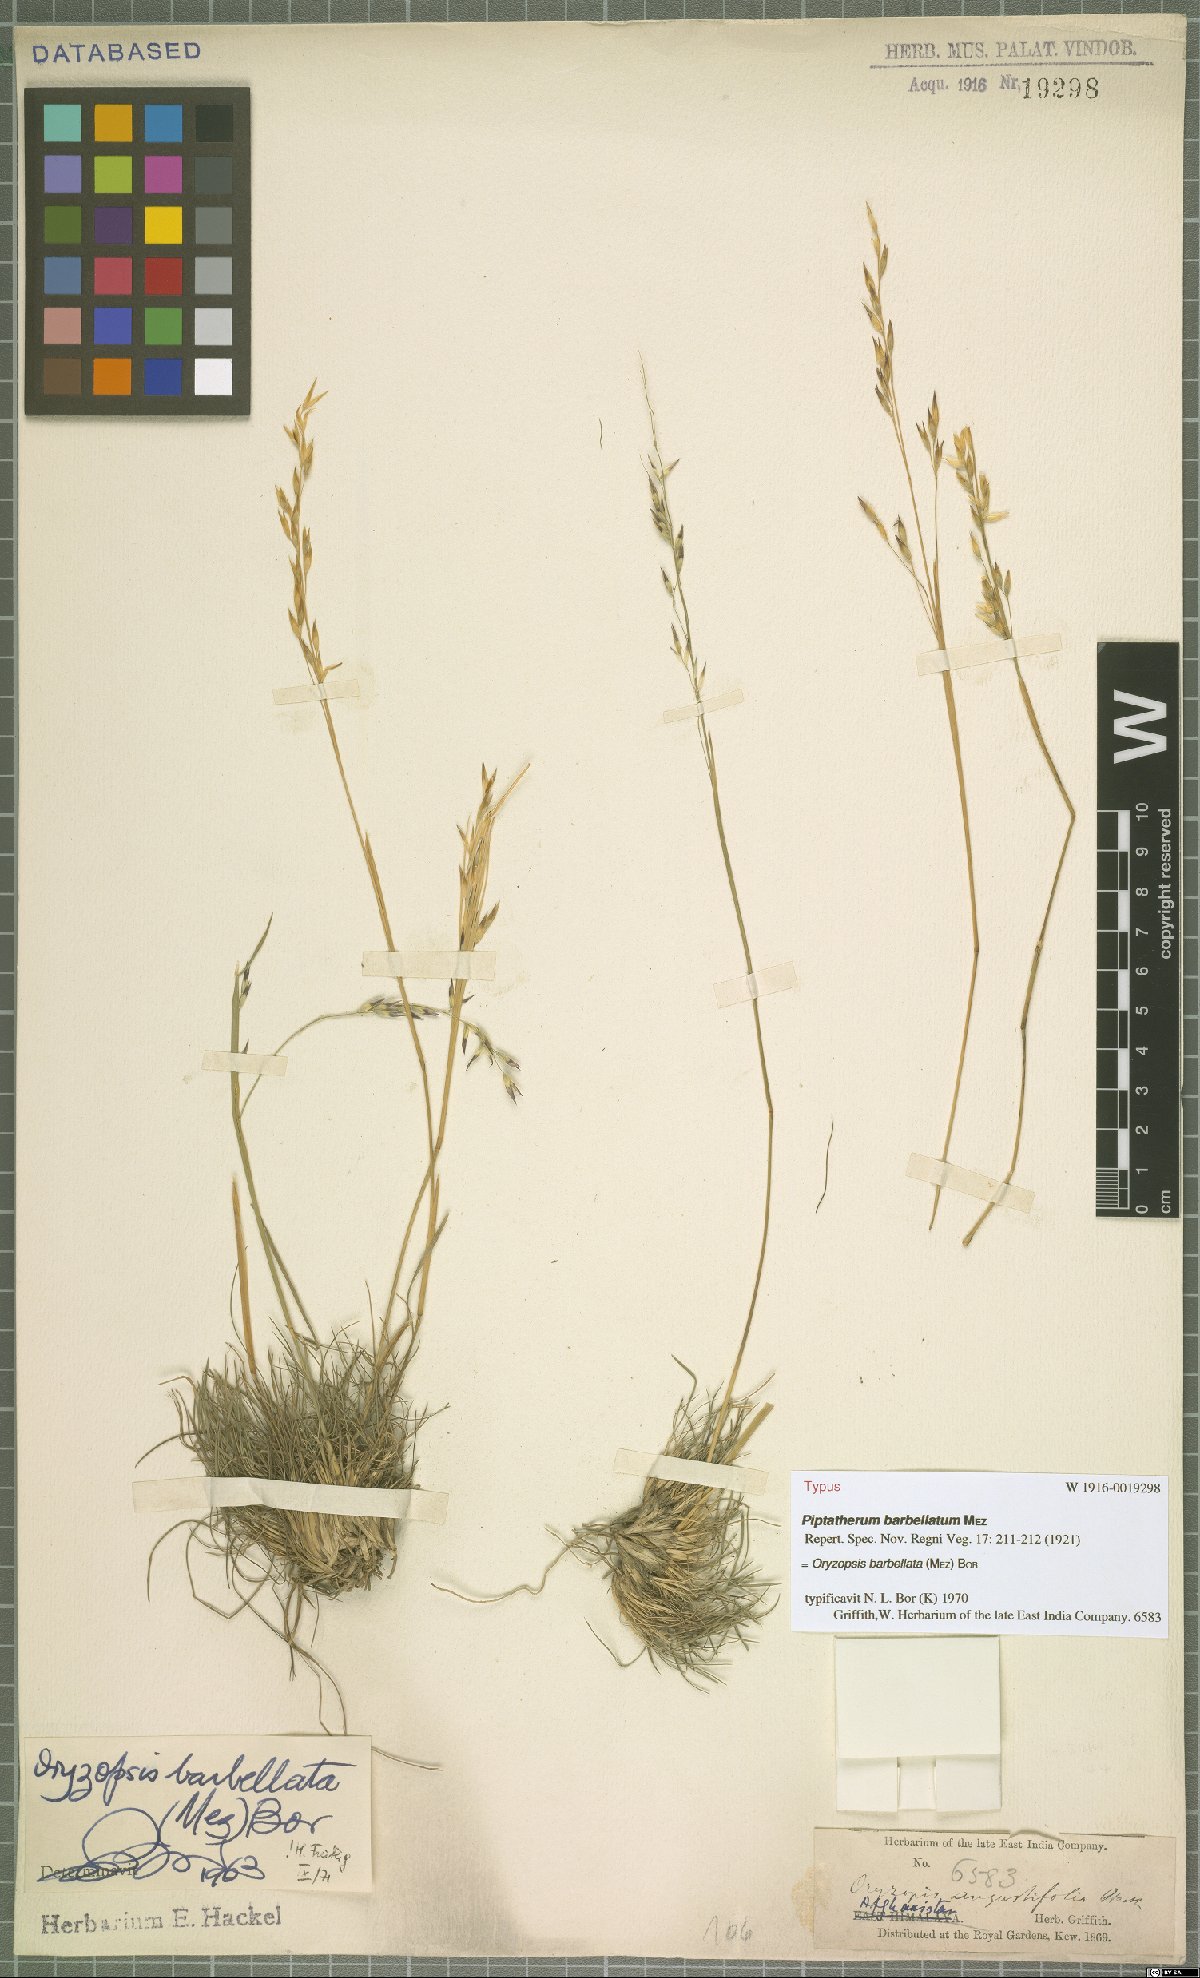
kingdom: Plantae
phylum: Tracheophyta
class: Liliopsida
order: Poales
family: Poaceae
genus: Piptatherum
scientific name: Piptatherum barbellatum
